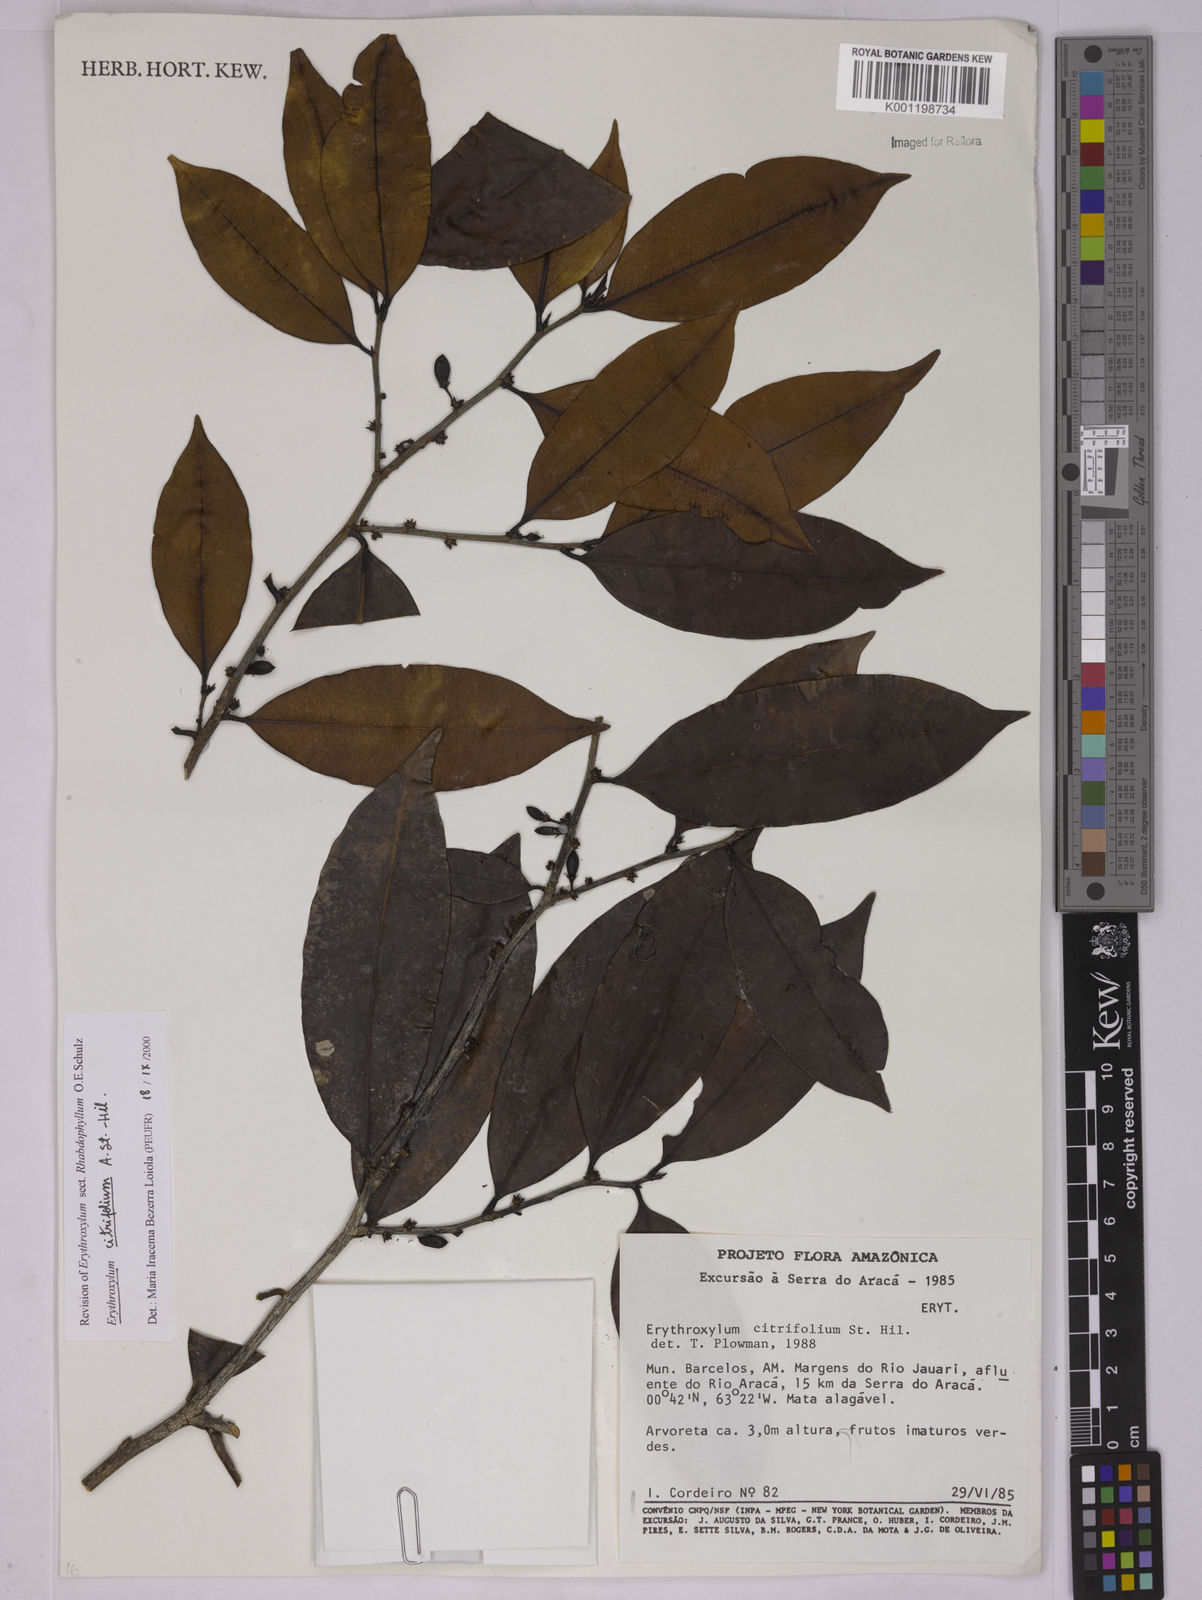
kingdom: Plantae
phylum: Tracheophyta
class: Magnoliopsida
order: Malpighiales
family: Erythroxylaceae
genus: Erythroxylum
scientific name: Erythroxylum citrifolium
